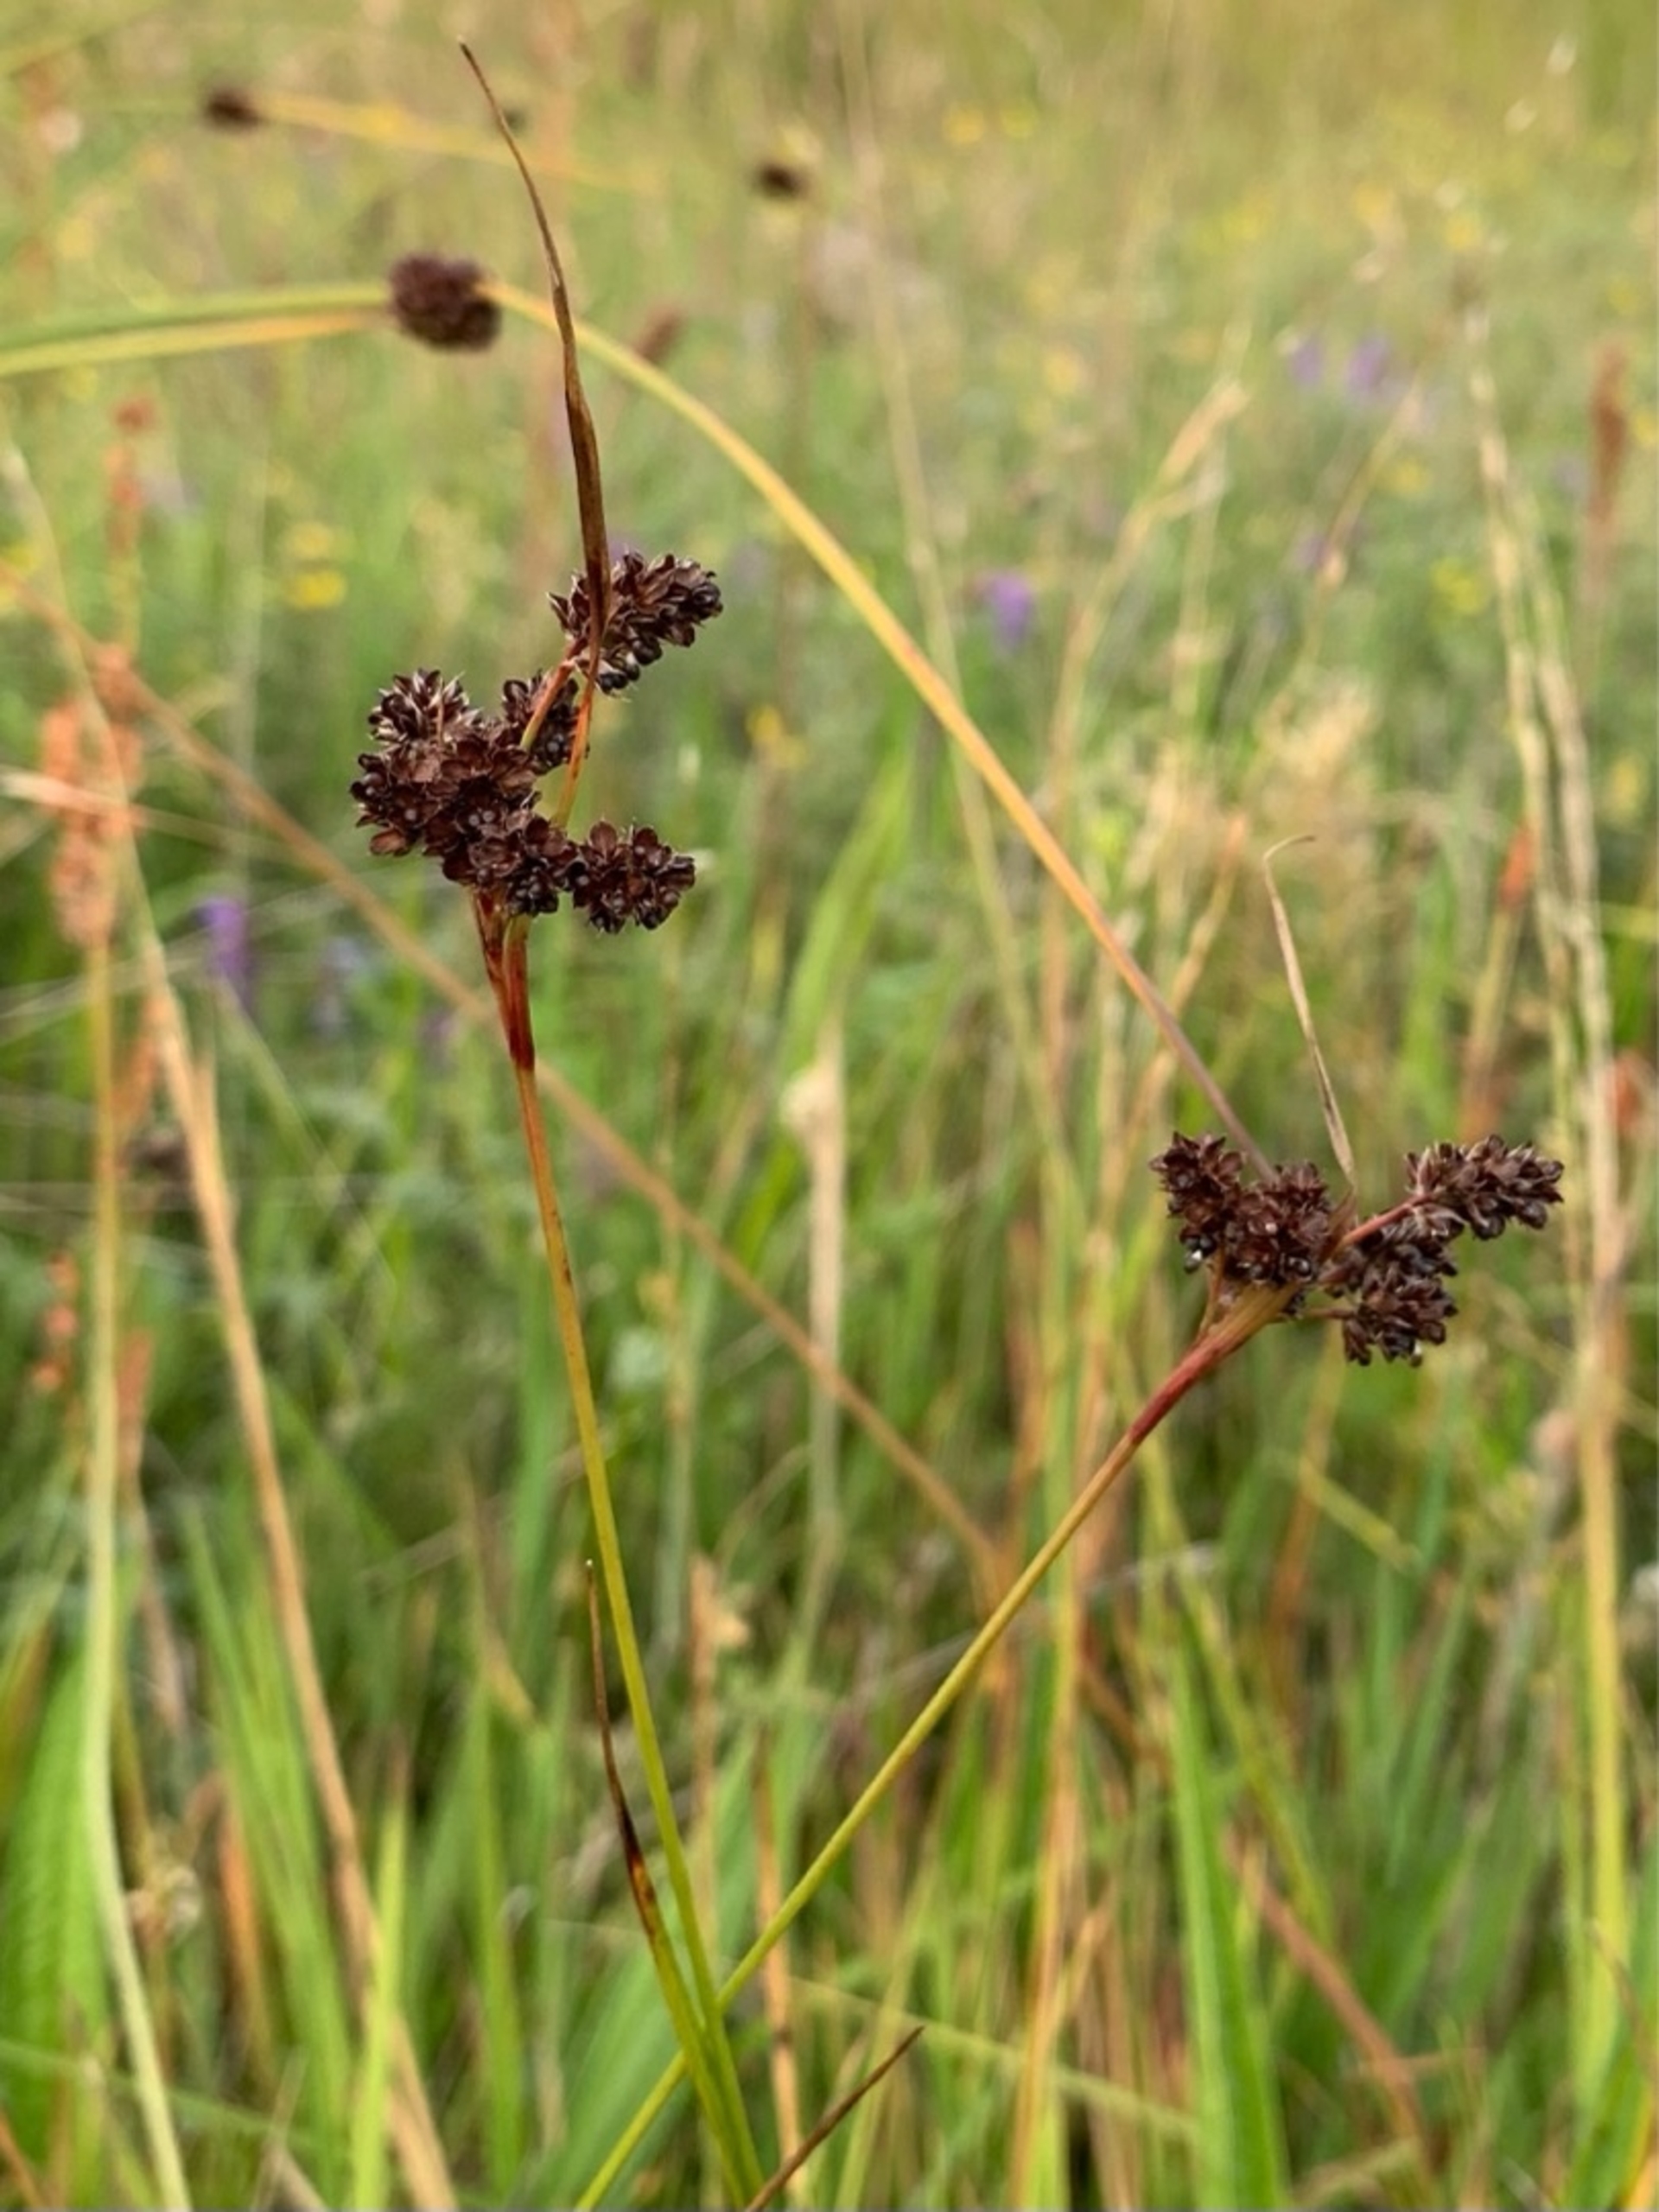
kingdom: Plantae
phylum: Tracheophyta
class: Liliopsida
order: Poales
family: Juncaceae
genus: Luzula
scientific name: Luzula multiflora
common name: Mangeblomstret frytle
